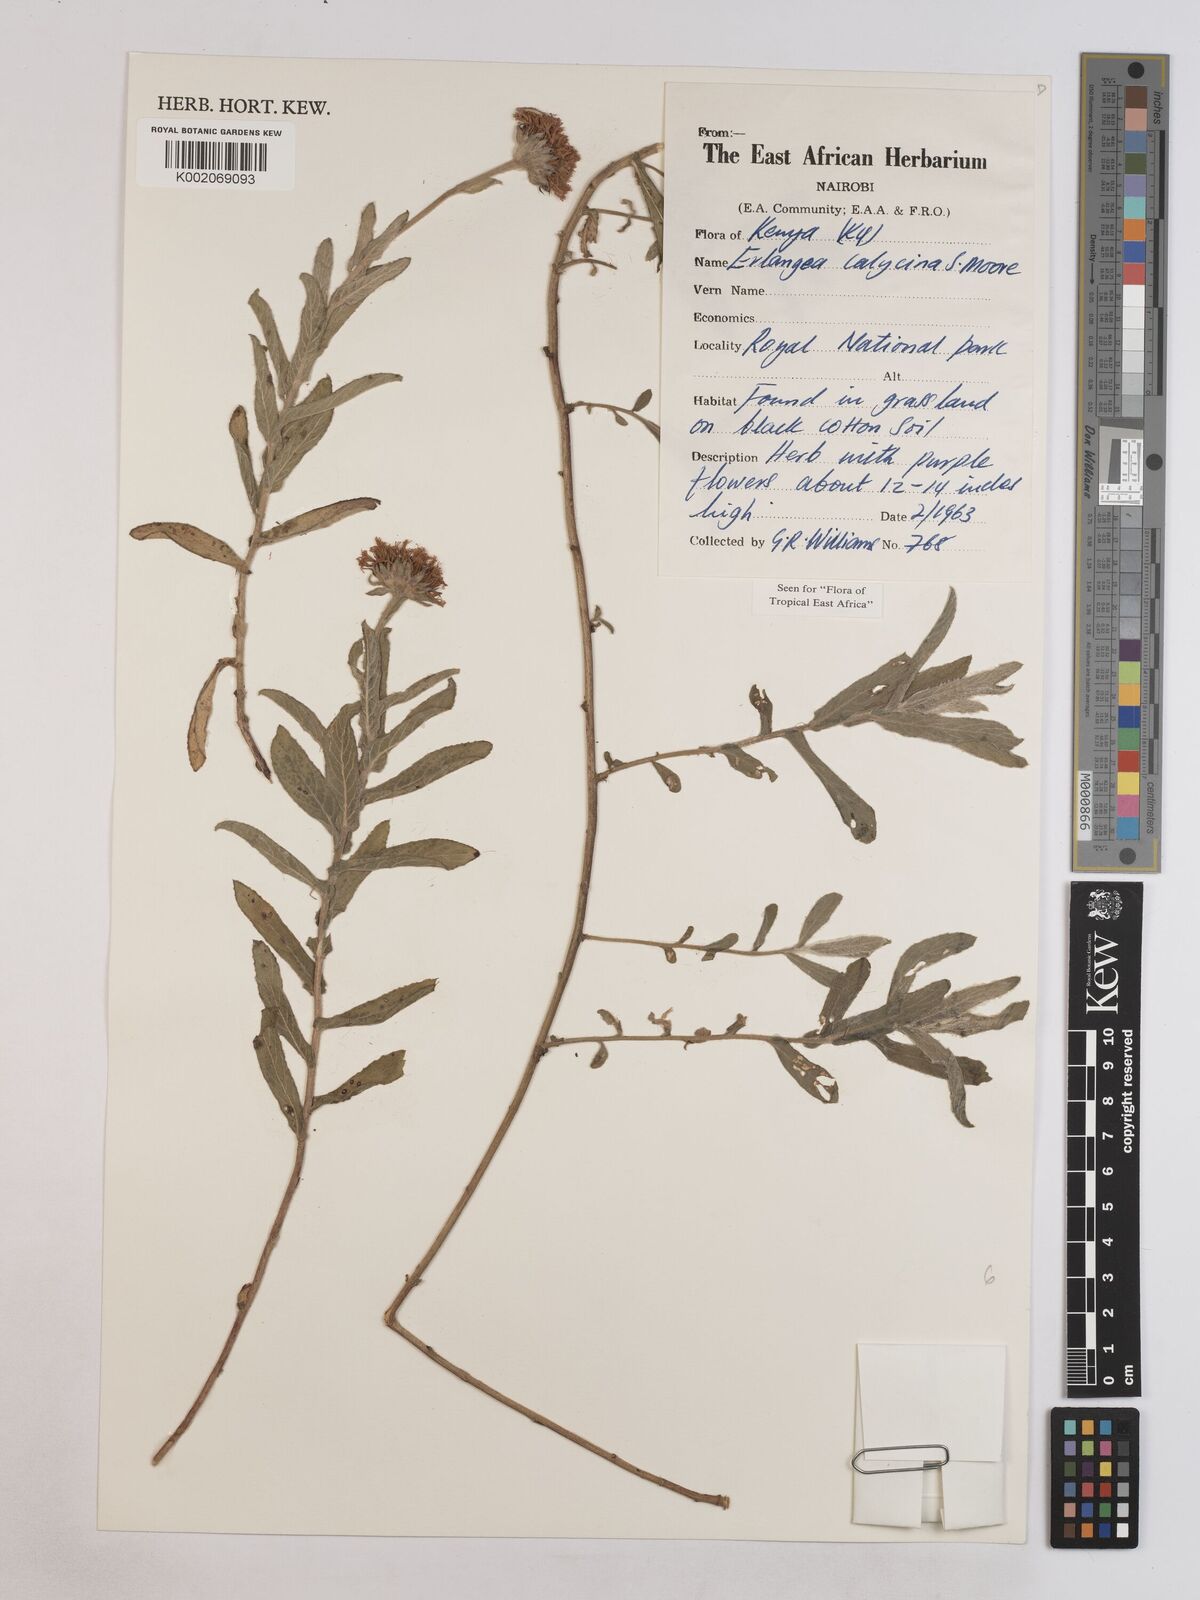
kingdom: Plantae
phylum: Tracheophyta
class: Magnoliopsida
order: Asterales
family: Asteraceae
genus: Erlangea
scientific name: Erlangea calycina
